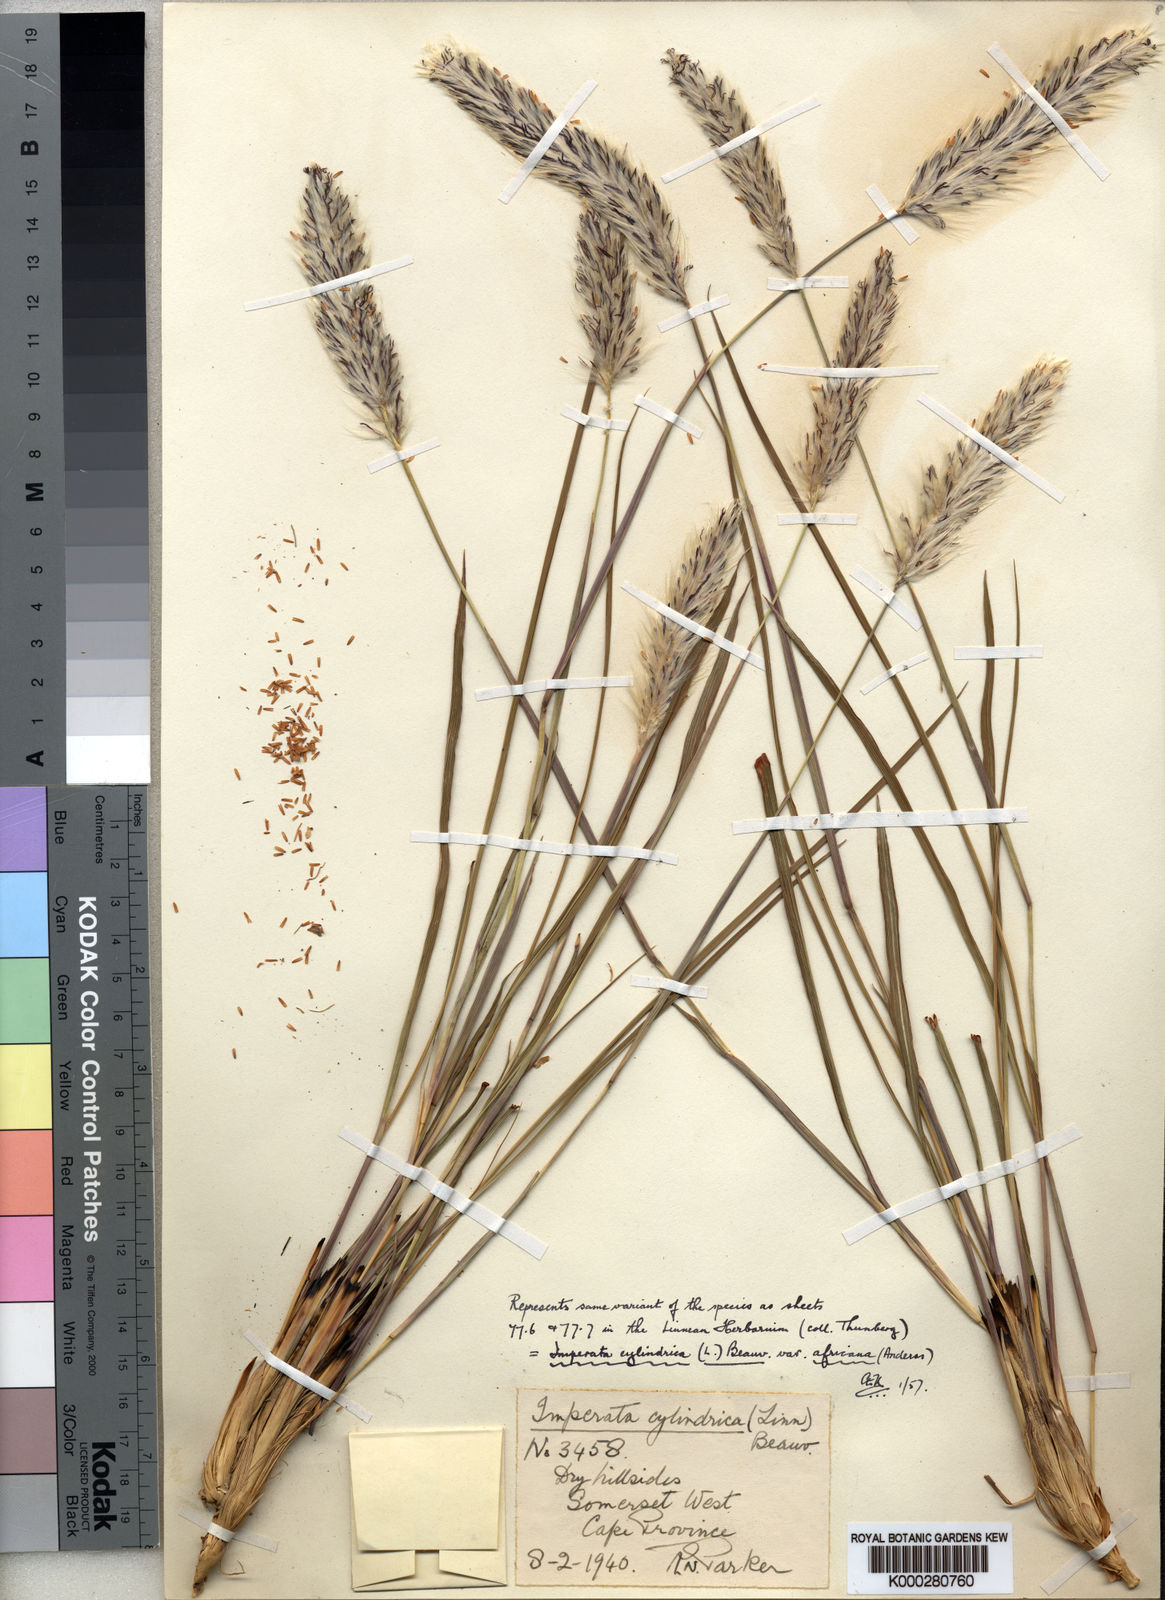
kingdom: Plantae
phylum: Tracheophyta
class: Liliopsida
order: Poales
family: Poaceae
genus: Imperata
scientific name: Imperata
